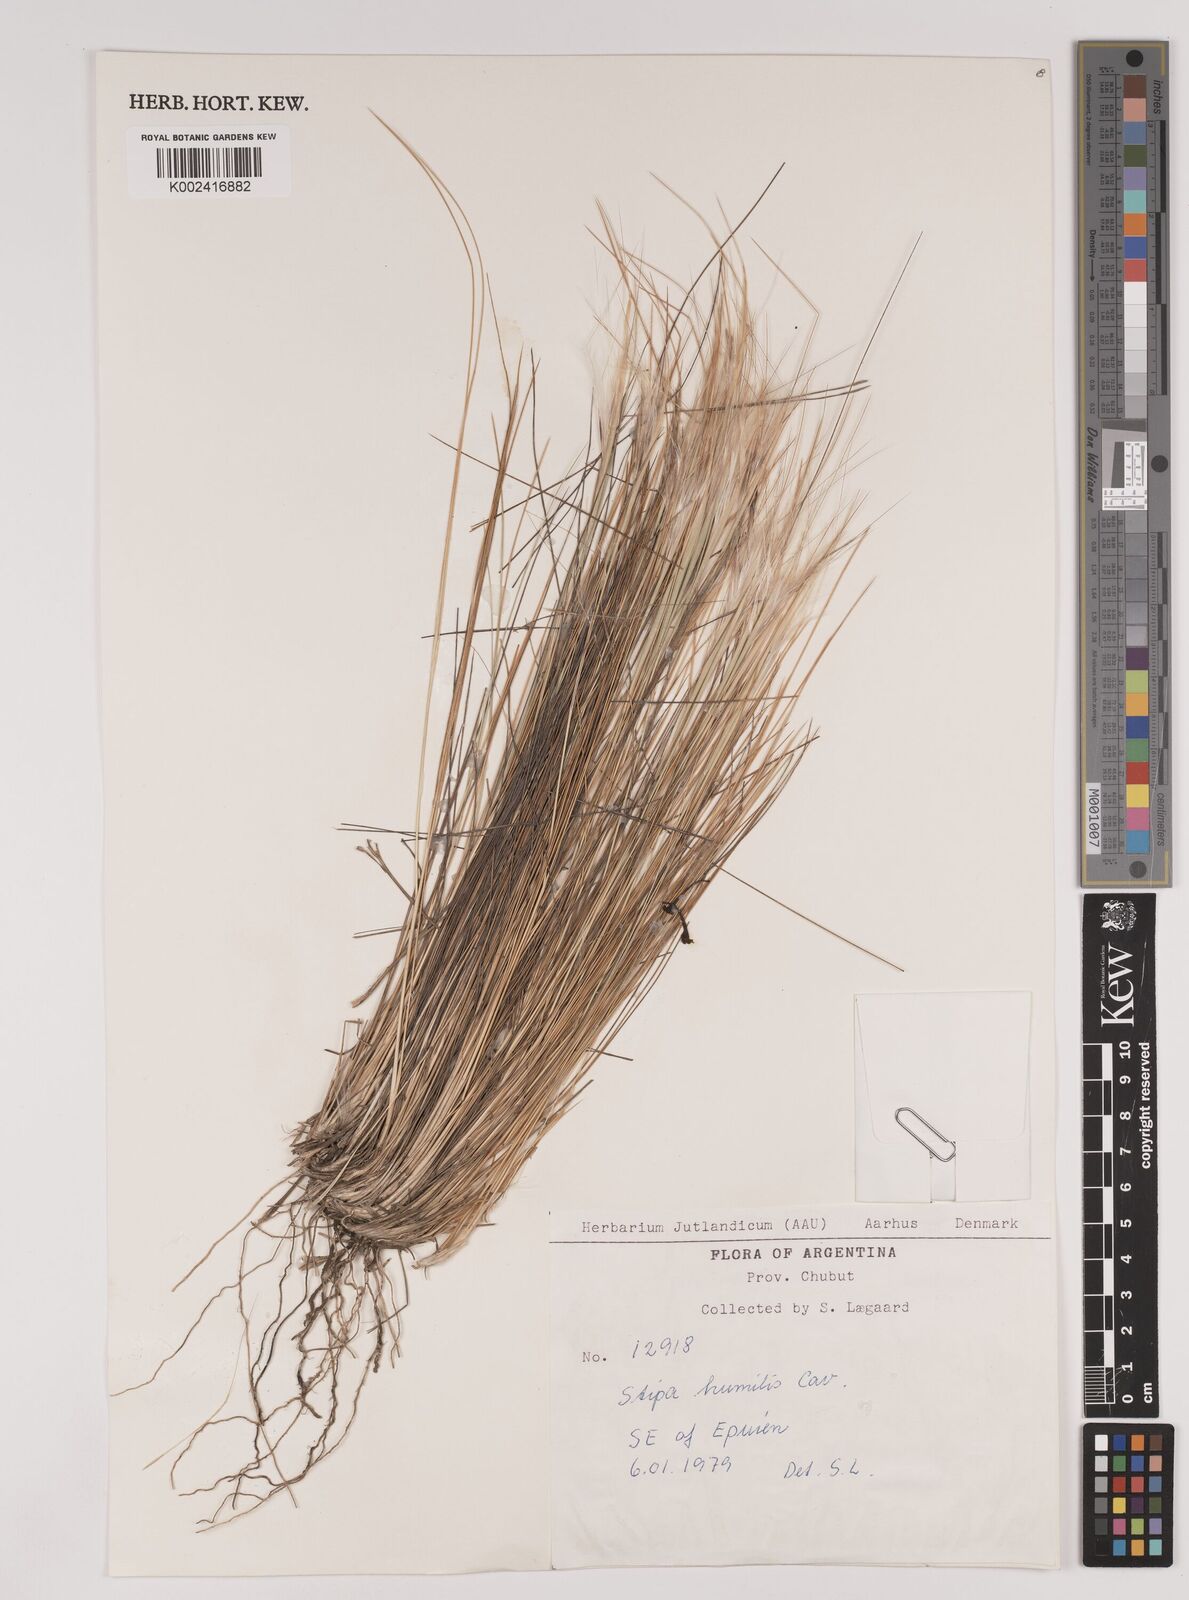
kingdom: Plantae
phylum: Tracheophyta
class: Liliopsida
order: Poales
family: Poaceae
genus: Pappostipa
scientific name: Pappostipa humilis
